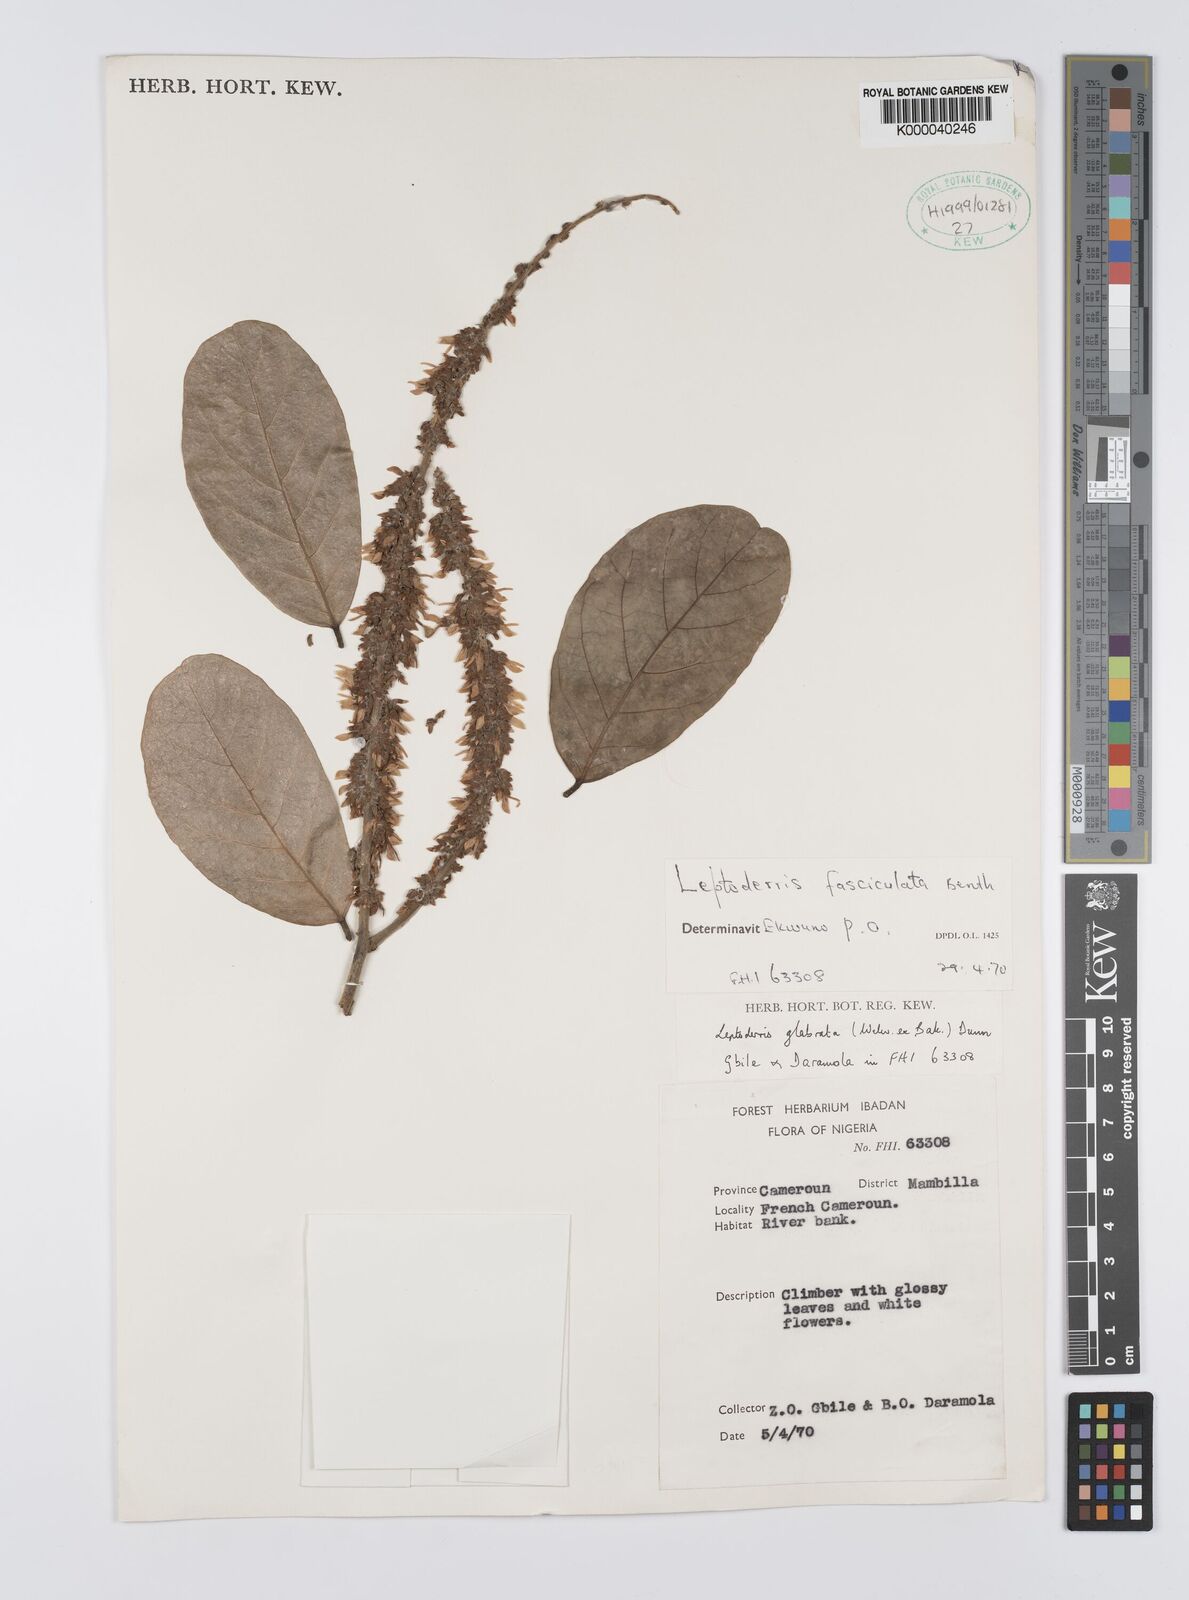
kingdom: Plantae
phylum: Tracheophyta
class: Magnoliopsida
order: Fabales
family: Fabaceae
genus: Leptoderris
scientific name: Leptoderris fasciculata
